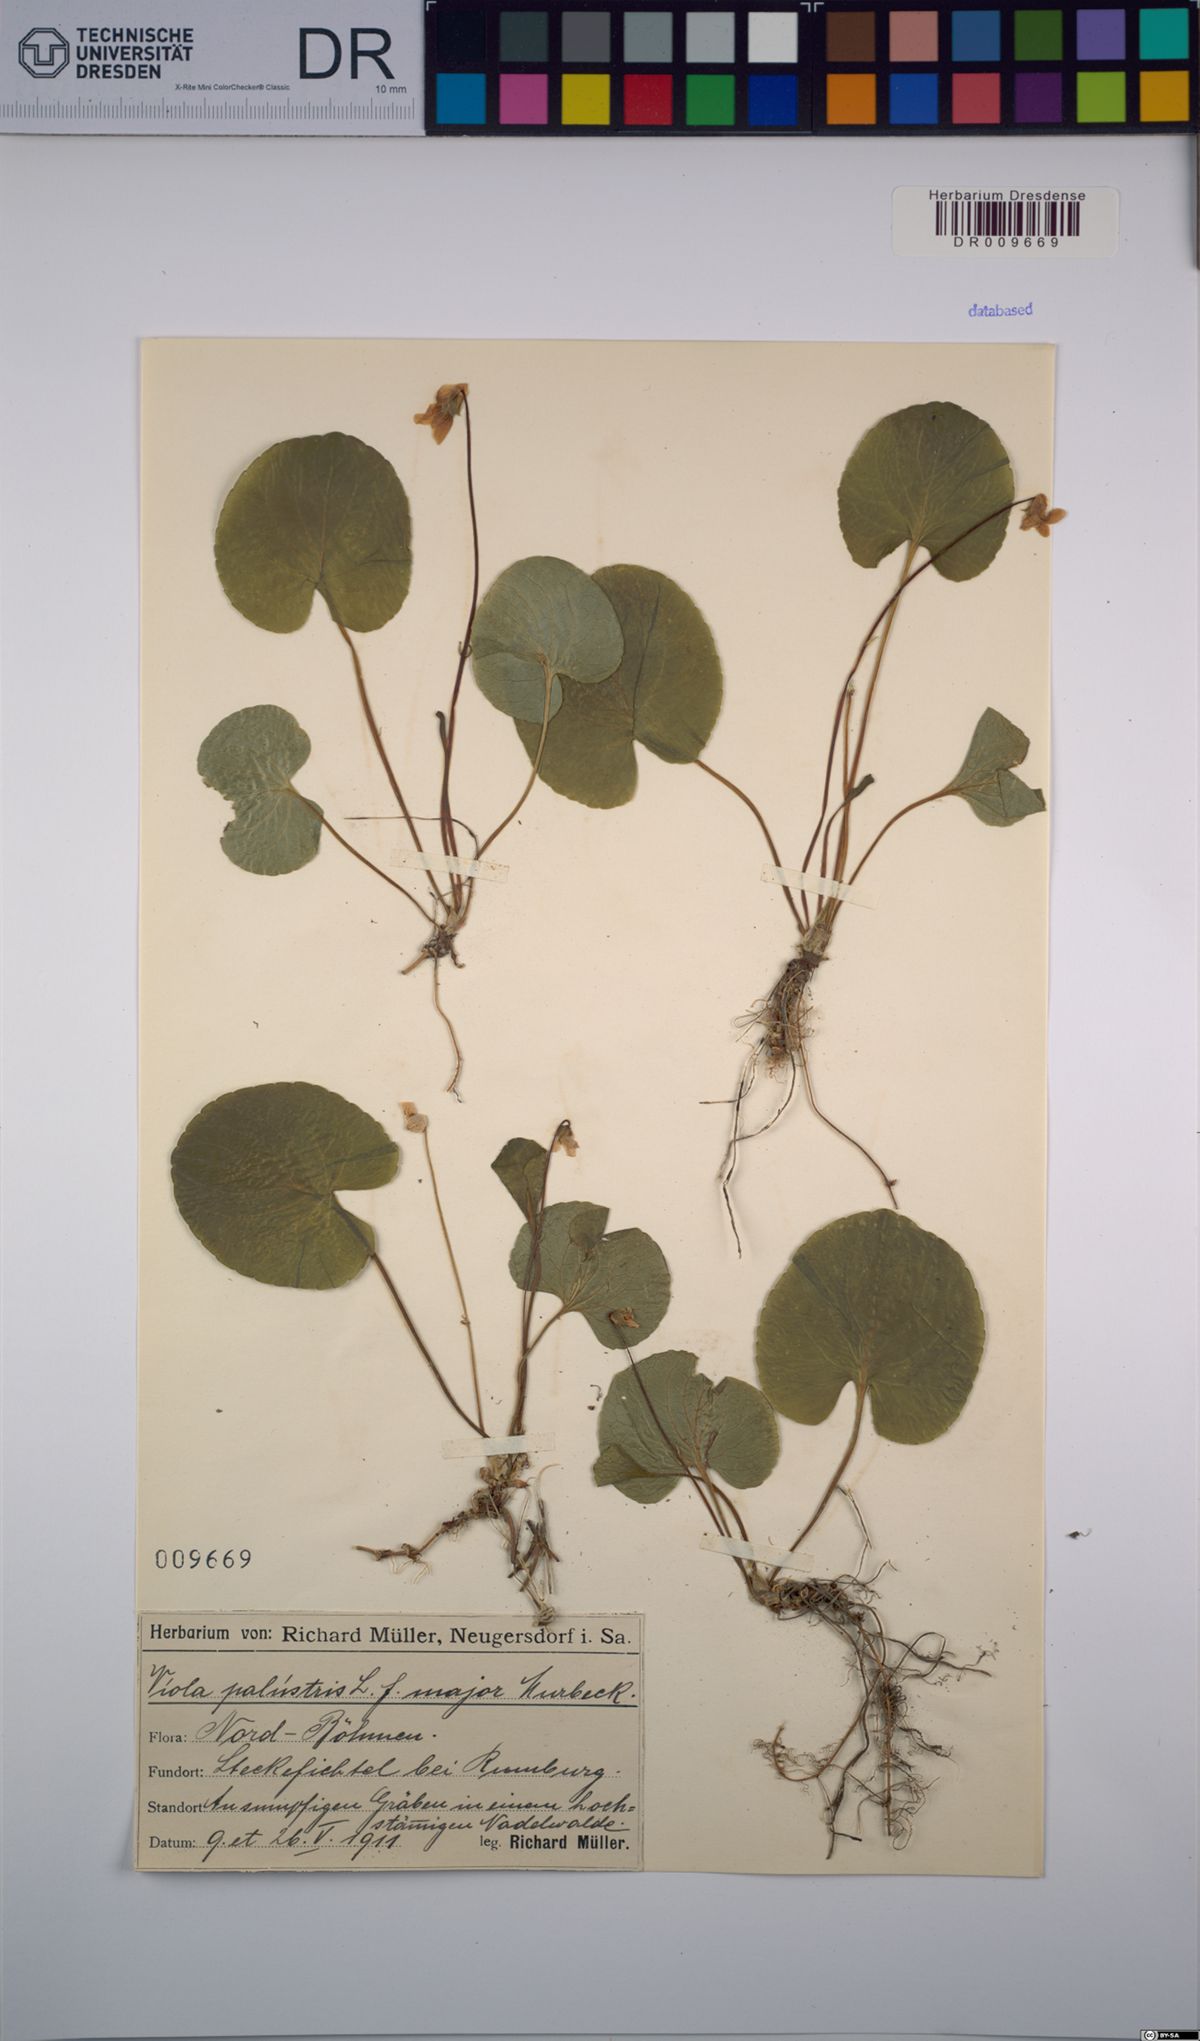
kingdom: Plantae
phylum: Tracheophyta
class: Magnoliopsida
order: Malpighiales
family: Violaceae
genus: Viola
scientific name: Viola palustris
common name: Marsh violet
